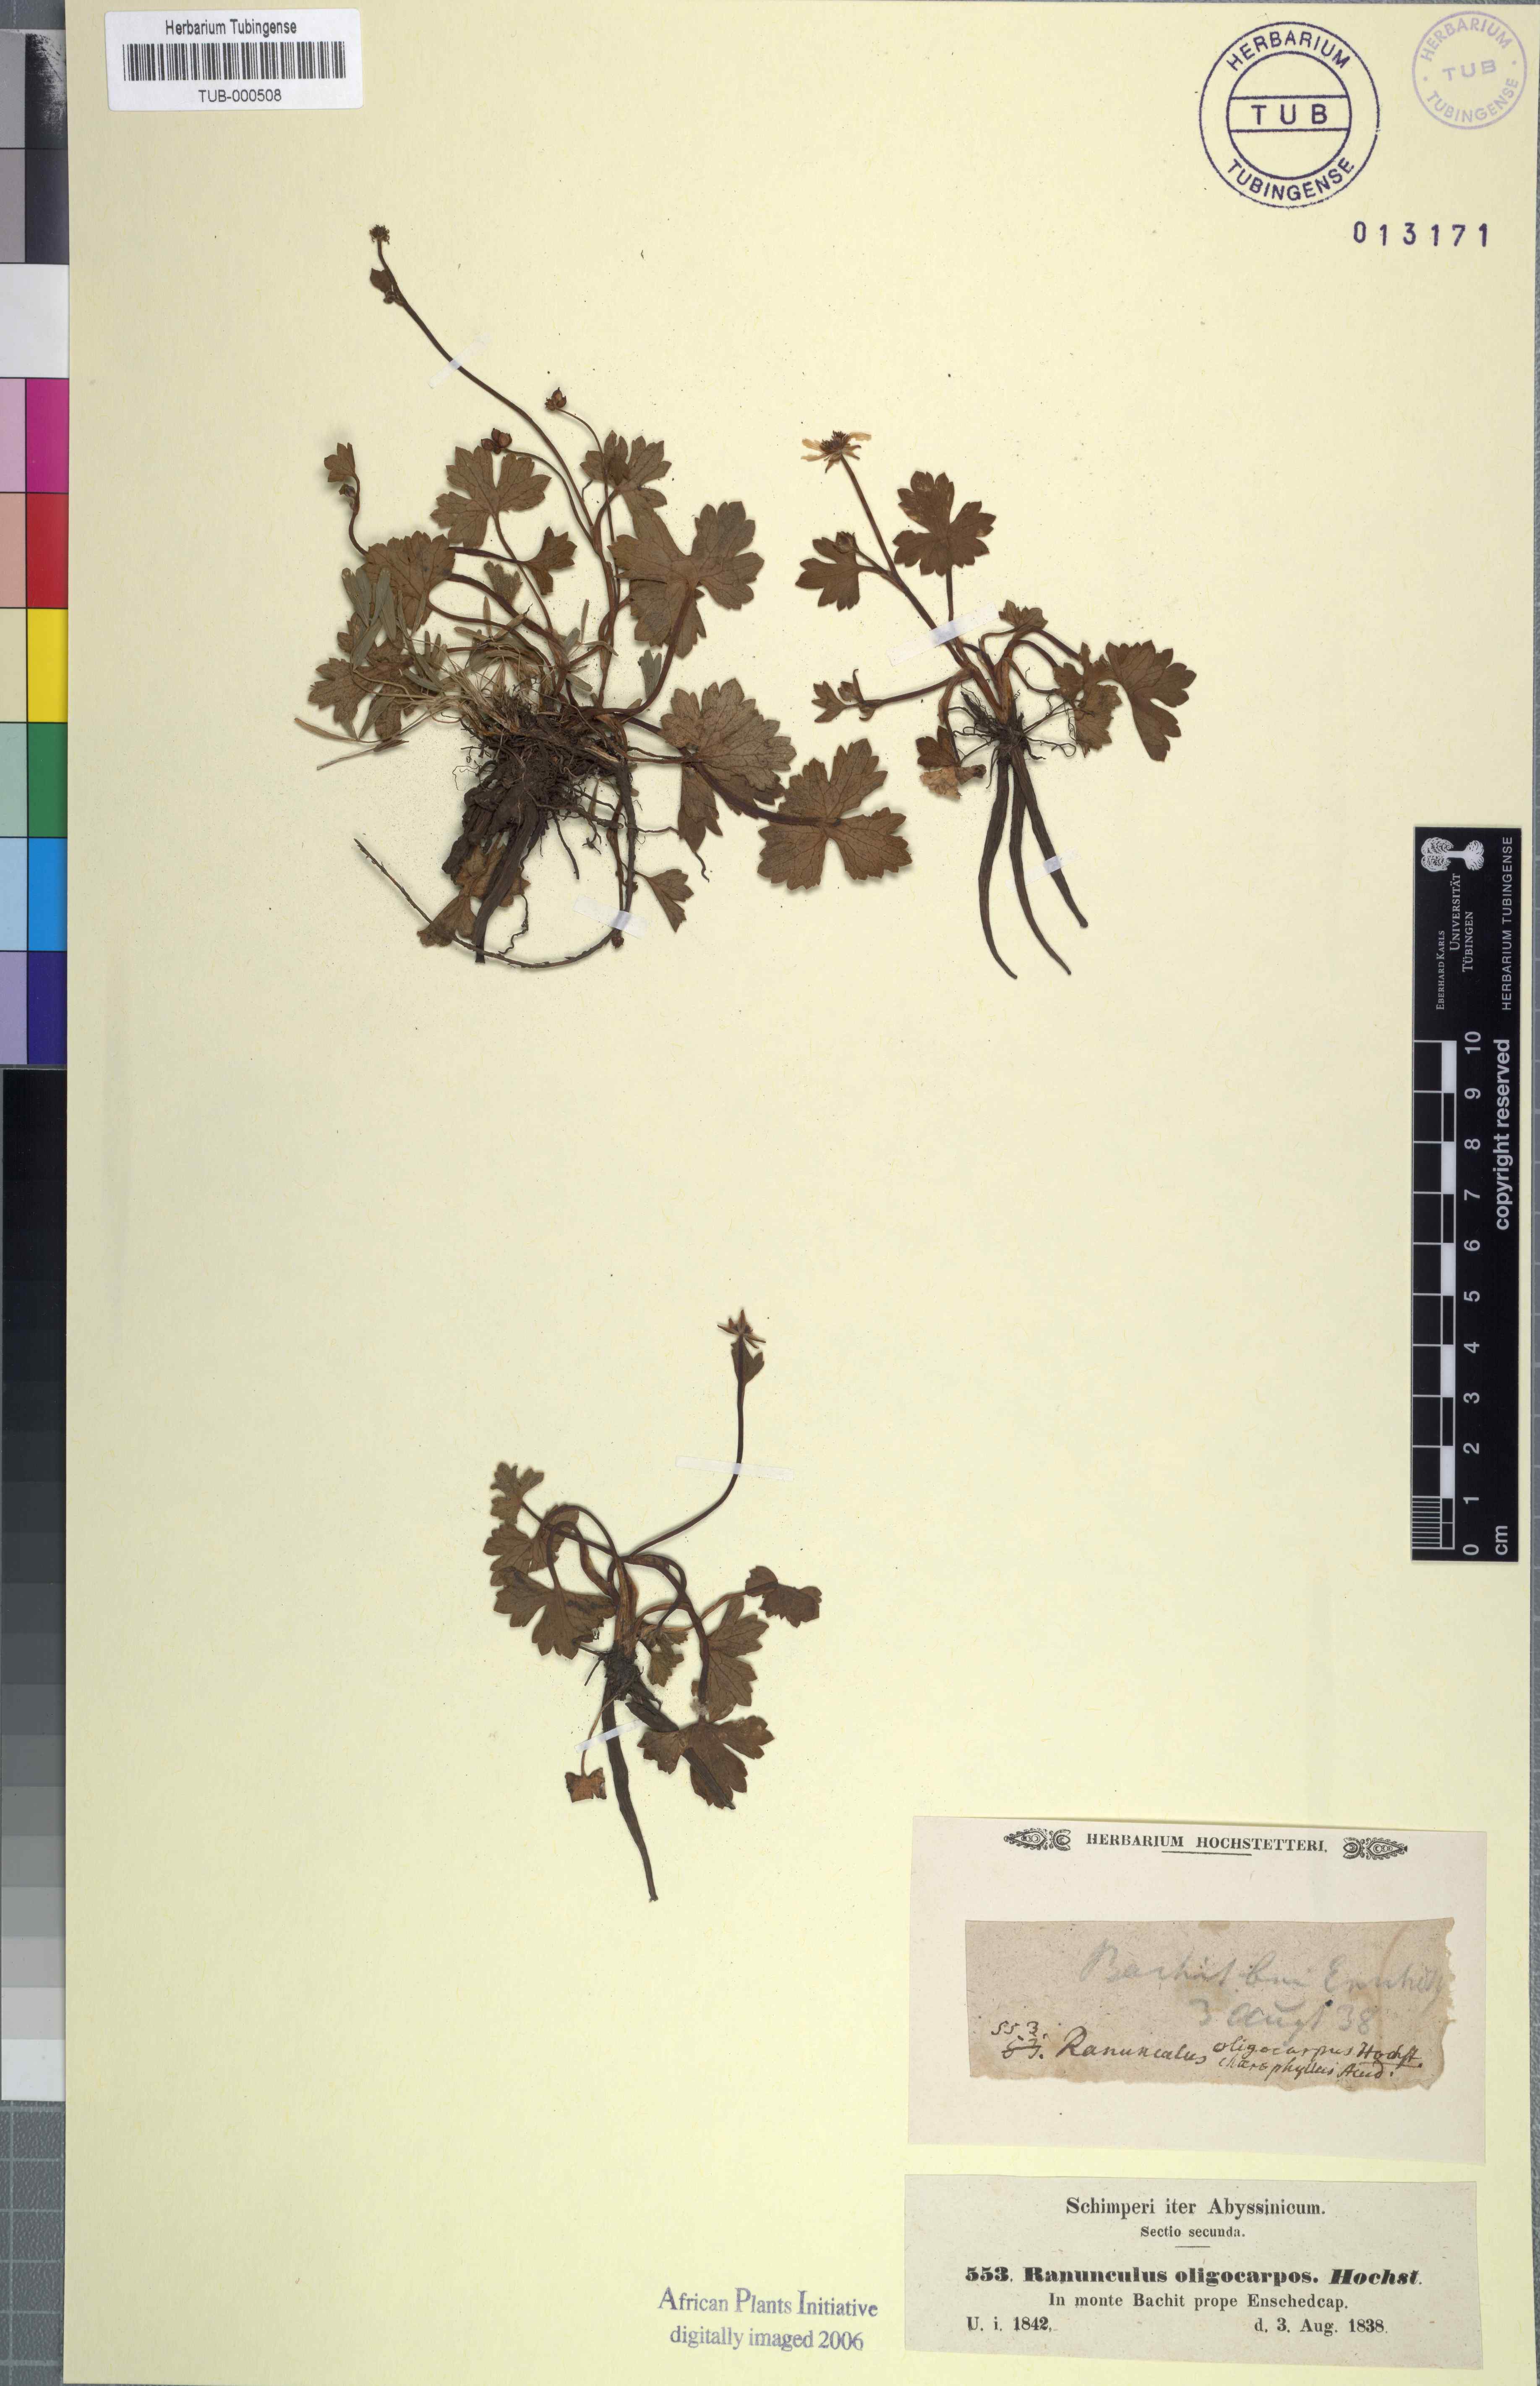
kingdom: Plantae
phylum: Tracheophyta
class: Magnoliopsida
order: Ranunculales
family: Ranunculaceae
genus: Ranunculus
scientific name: Ranunculus oligocarpos
